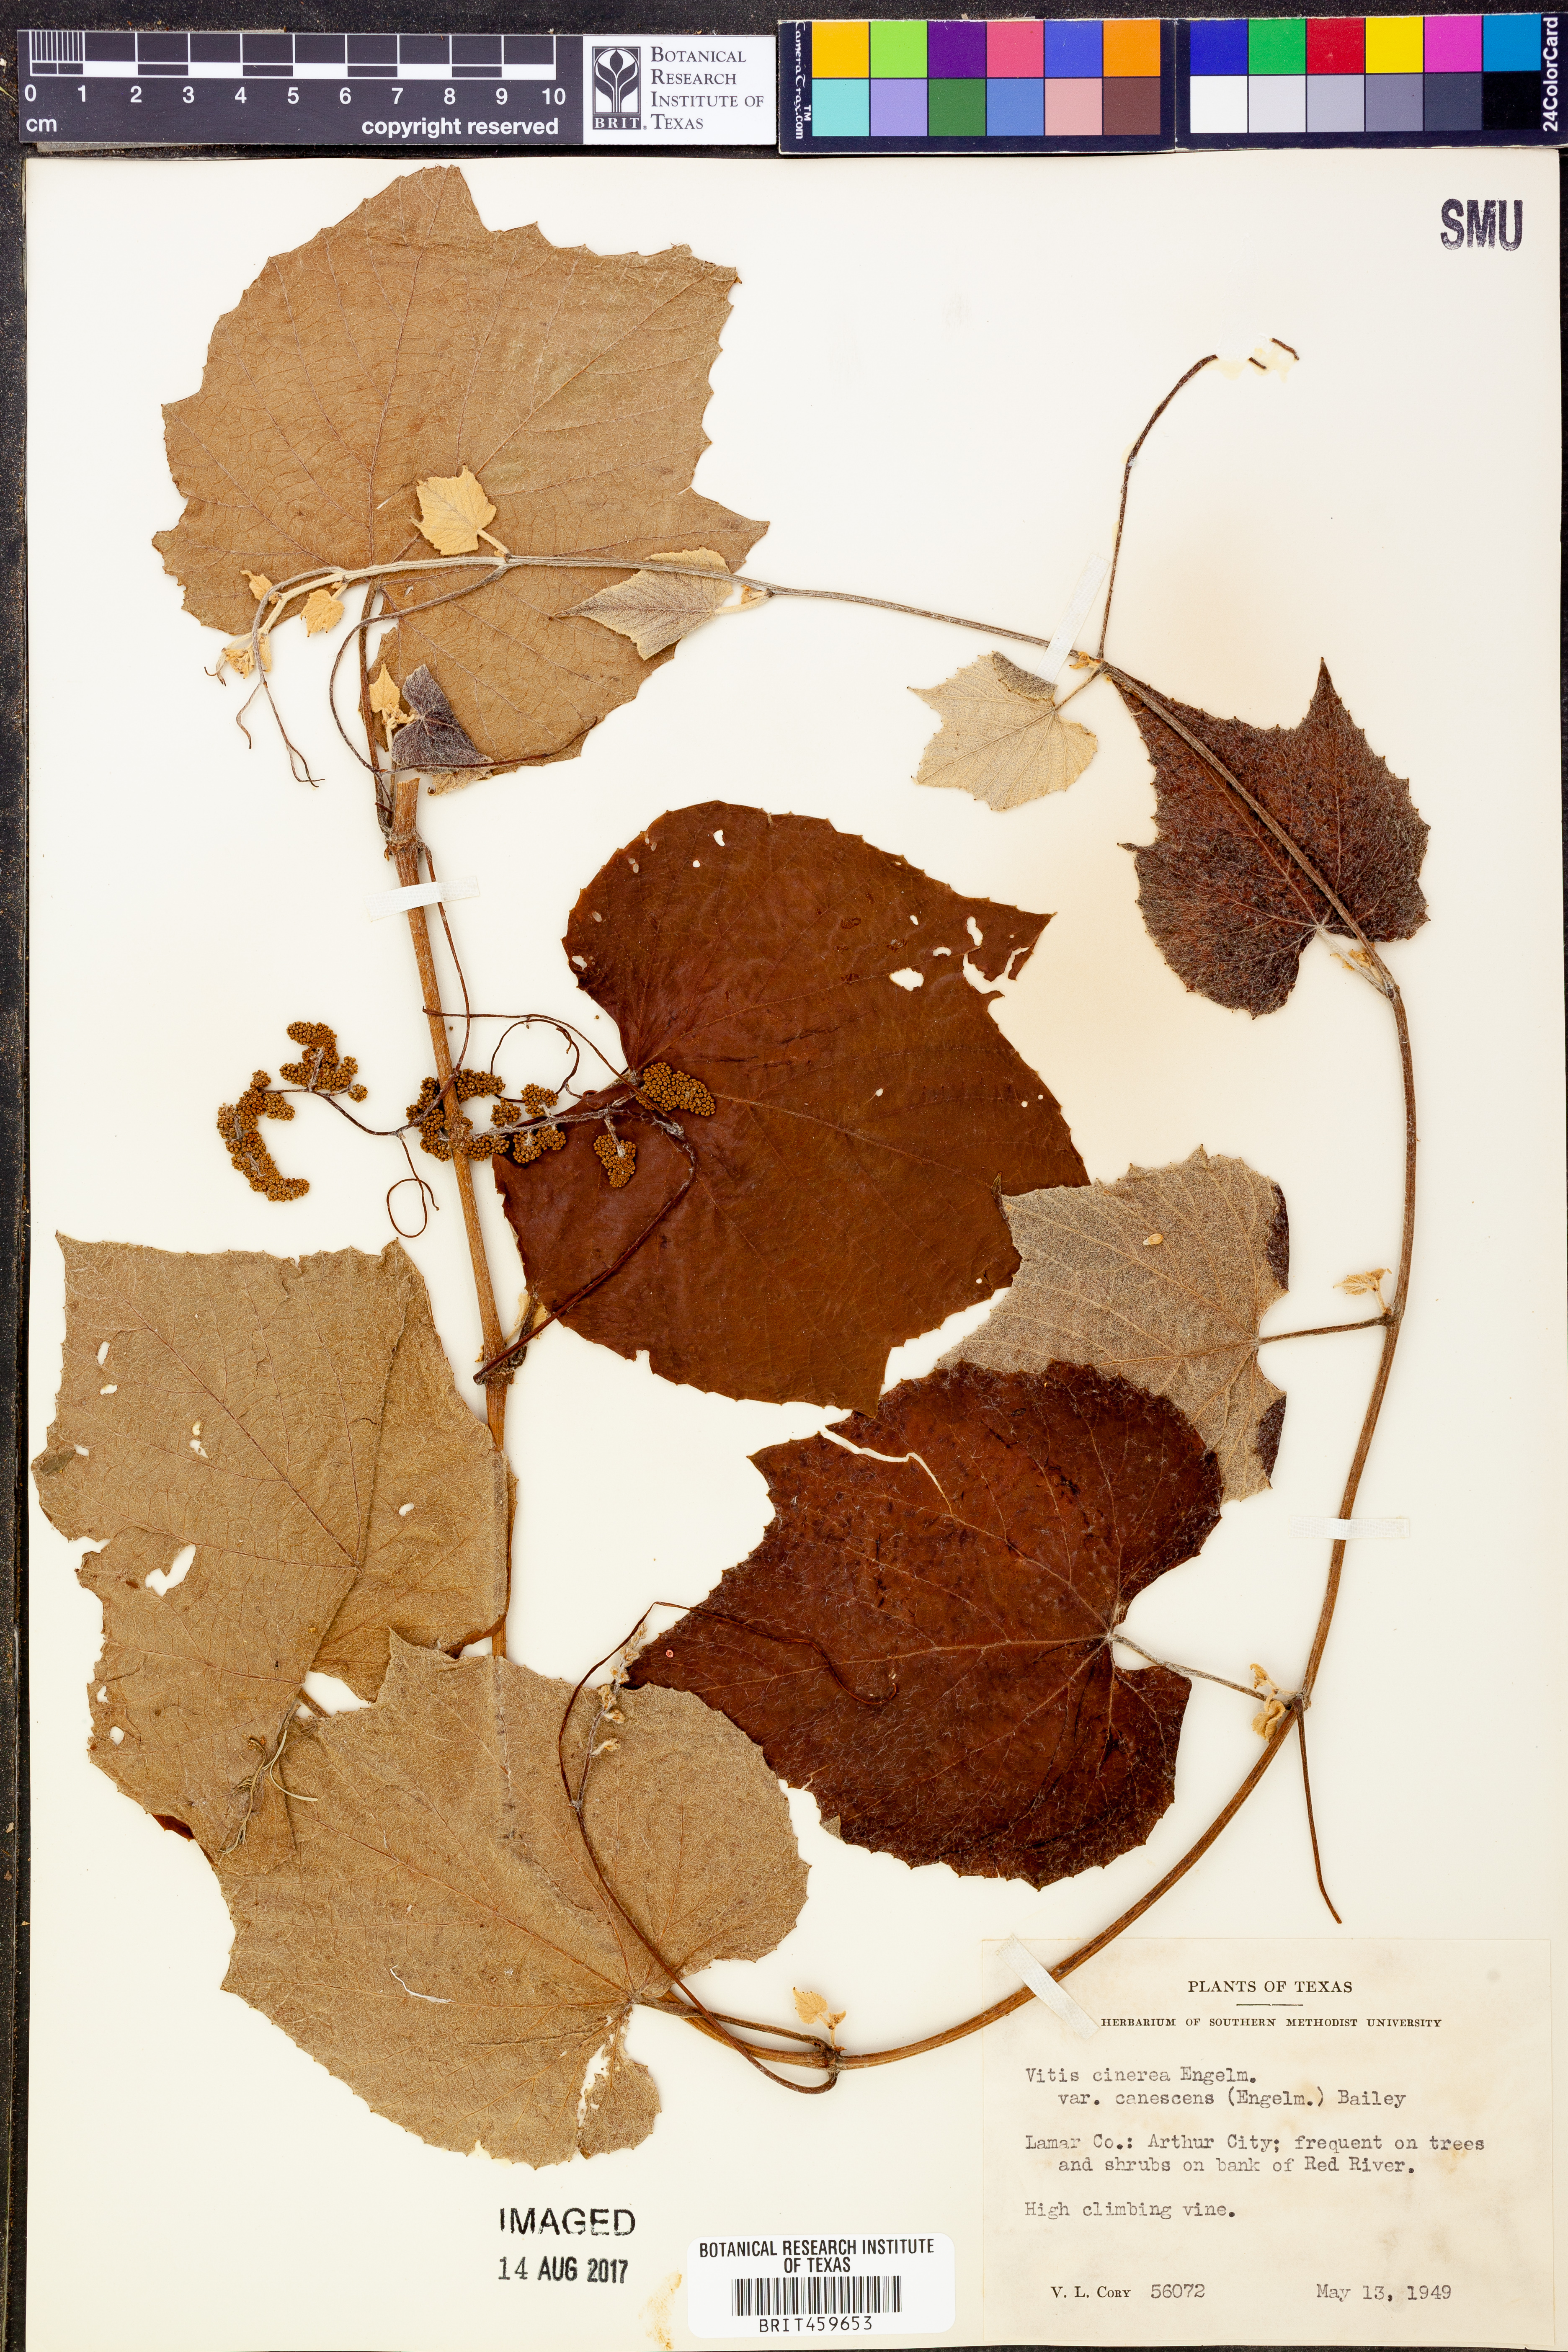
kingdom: Plantae
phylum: Tracheophyta
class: Magnoliopsida
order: Vitales
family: Vitaceae
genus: Vitis
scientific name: Vitis cinerea
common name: Ashy grape
